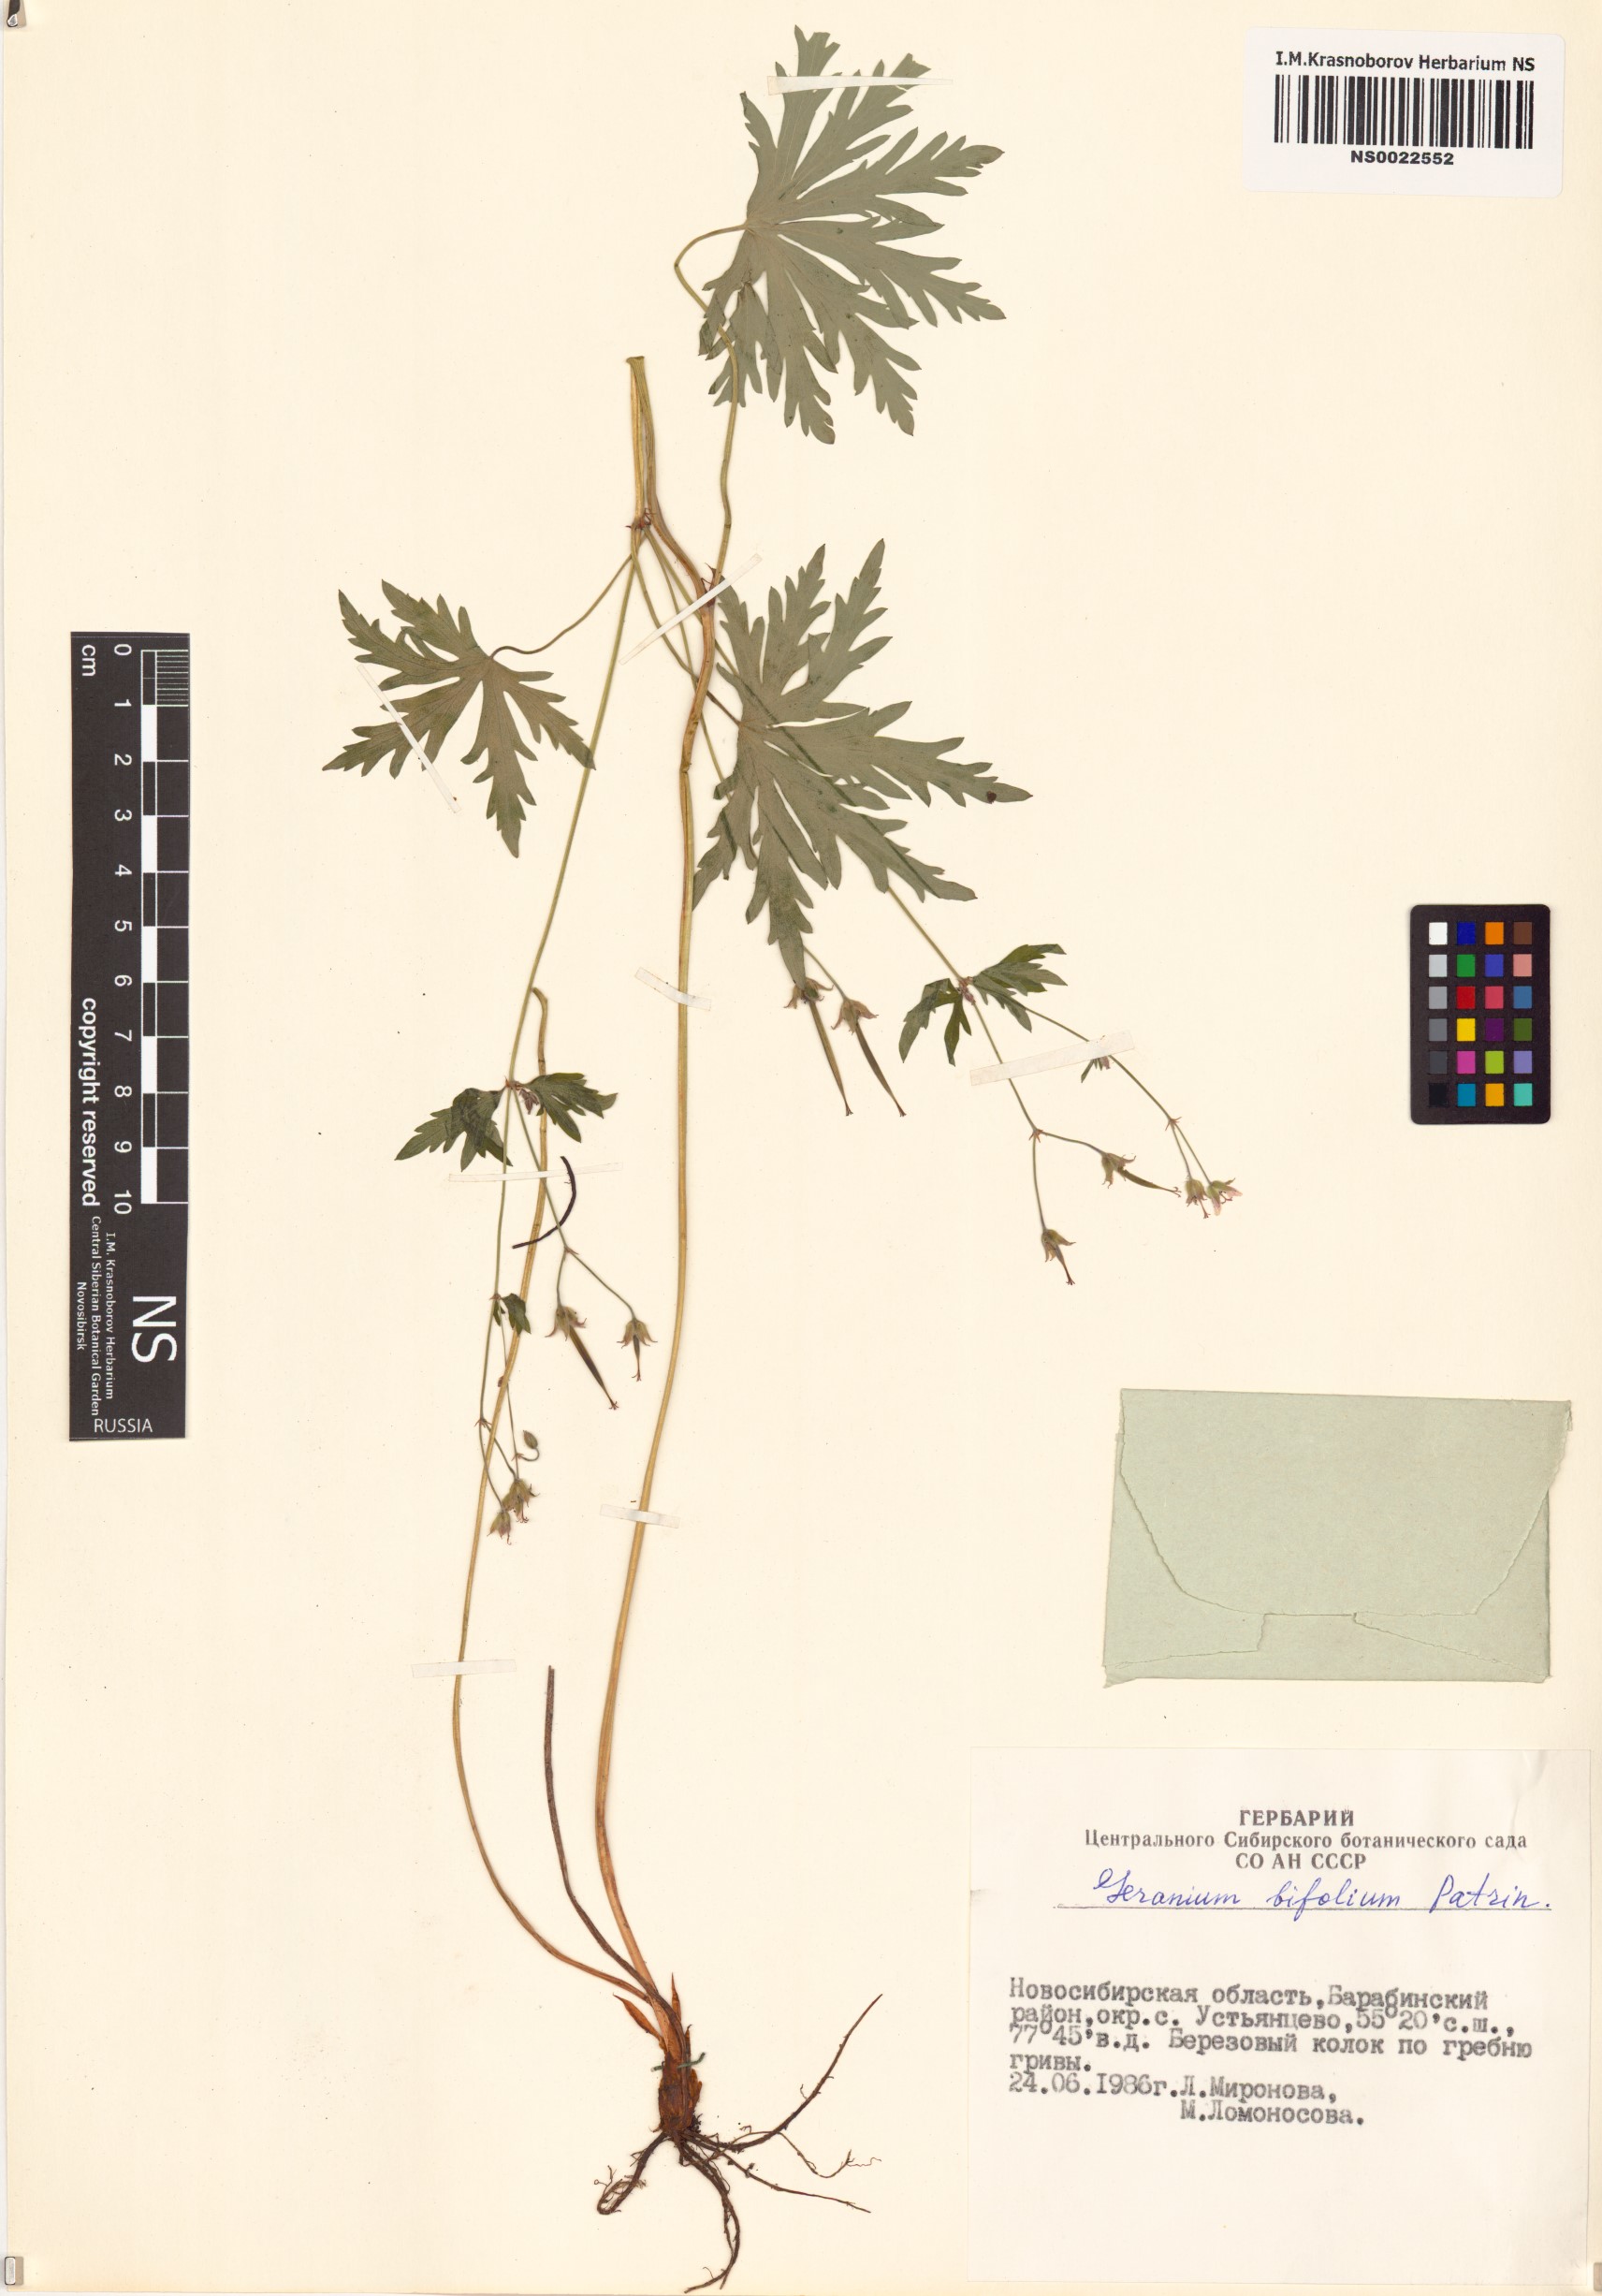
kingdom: Plantae
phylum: Tracheophyta
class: Magnoliopsida
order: Geraniales
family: Geraniaceae
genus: Geranium
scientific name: Geranium pseudosibiricum
